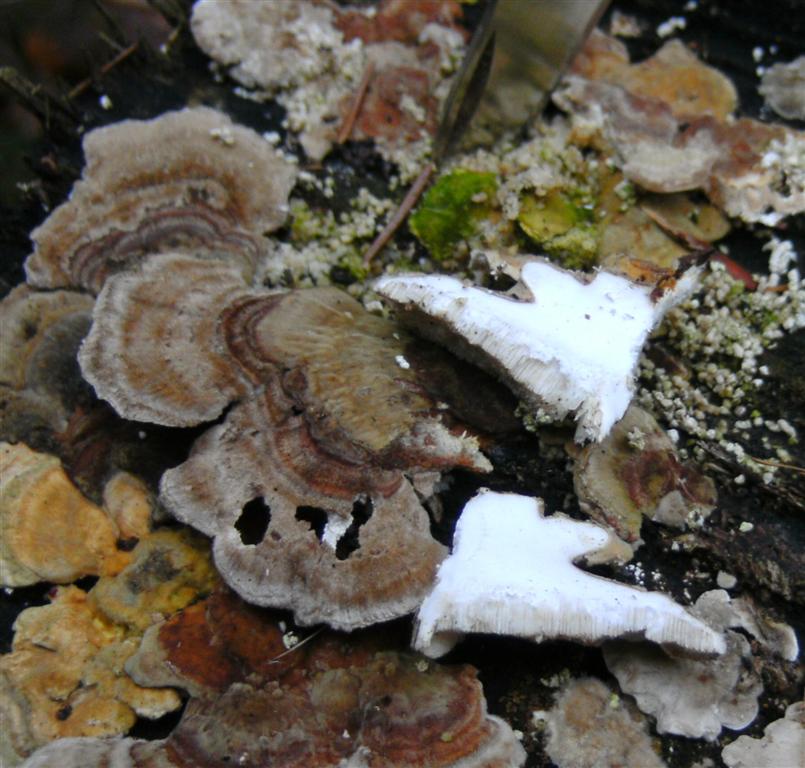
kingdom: Fungi
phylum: Basidiomycota
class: Agaricomycetes
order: Polyporales
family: Polyporaceae
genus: Trametes
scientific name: Trametes ochracea
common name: bæltet læderporesvamp
